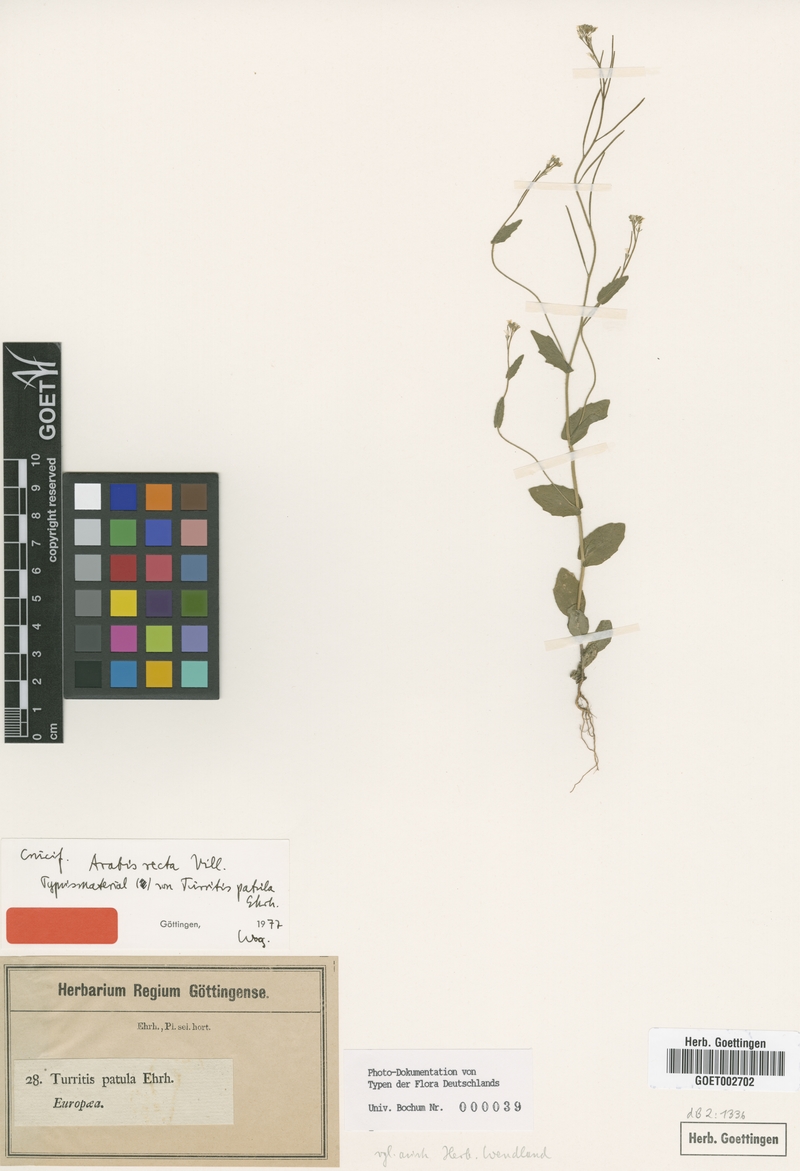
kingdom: Plantae
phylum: Tracheophyta
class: Magnoliopsida
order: Brassicales
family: Brassicaceae
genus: Arabis
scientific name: Arabis auriculata
